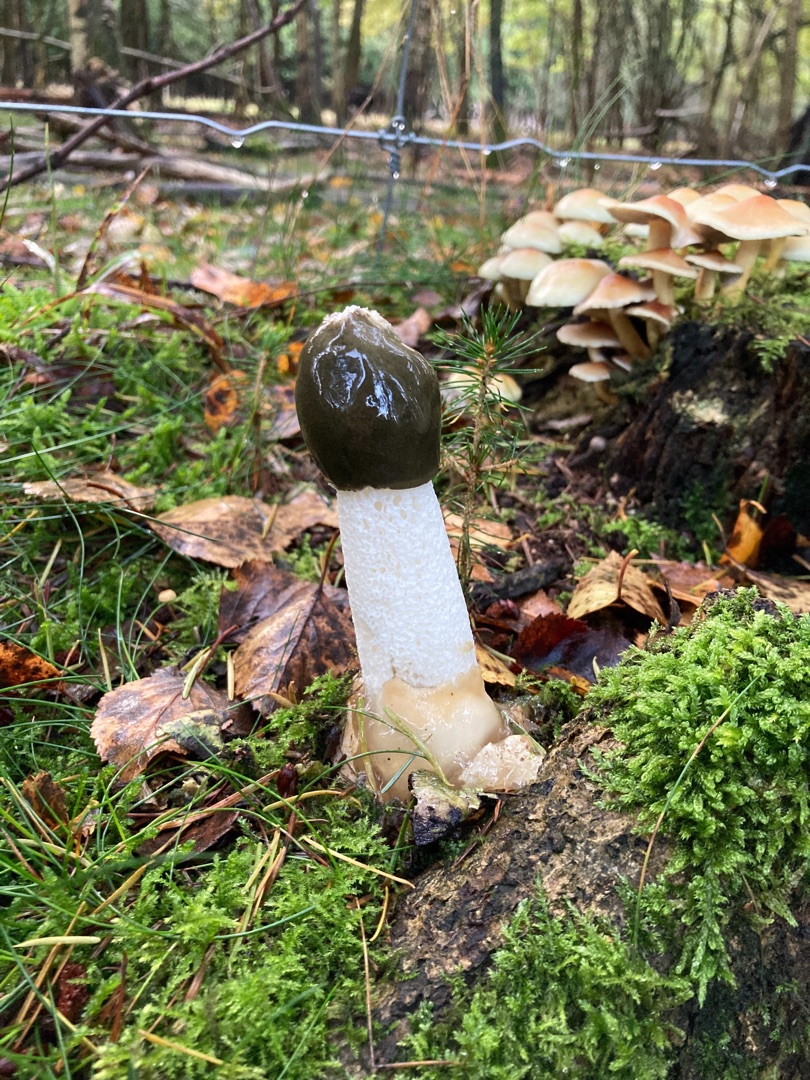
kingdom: Fungi
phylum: Basidiomycota
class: Agaricomycetes
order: Phallales
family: Phallaceae
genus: Phallus
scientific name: Phallus impudicus
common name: Almindelig stinksvamp
